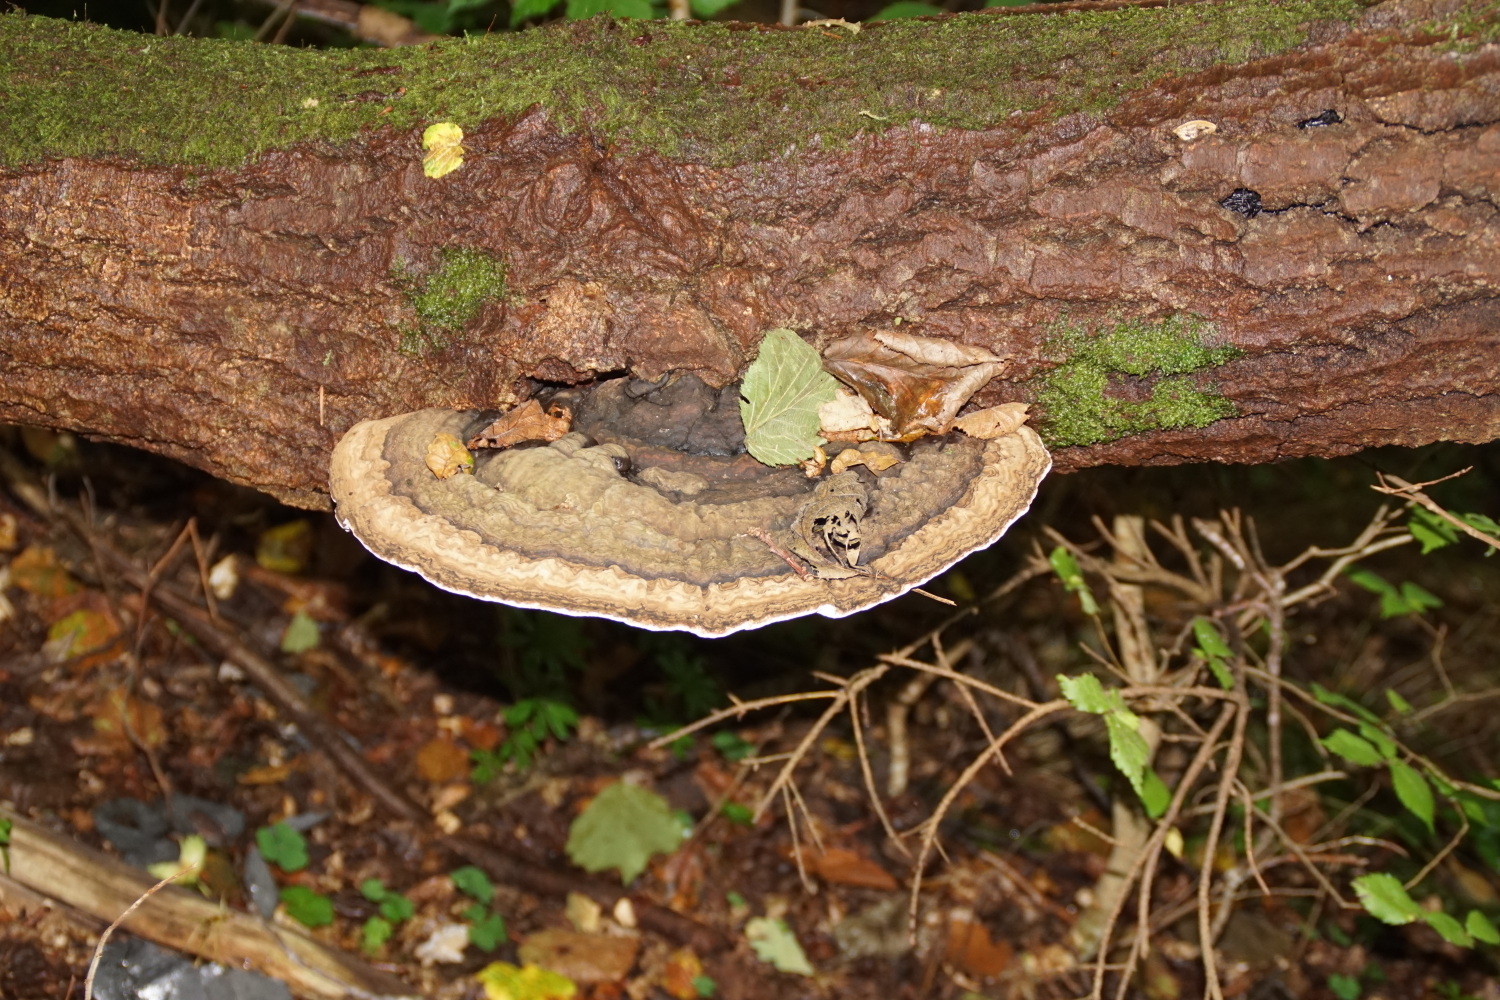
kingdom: Fungi
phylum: Basidiomycota
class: Agaricomycetes
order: Polyporales
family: Polyporaceae
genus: Ganoderma
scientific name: Ganoderma applanatum
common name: flad lakporesvamp
